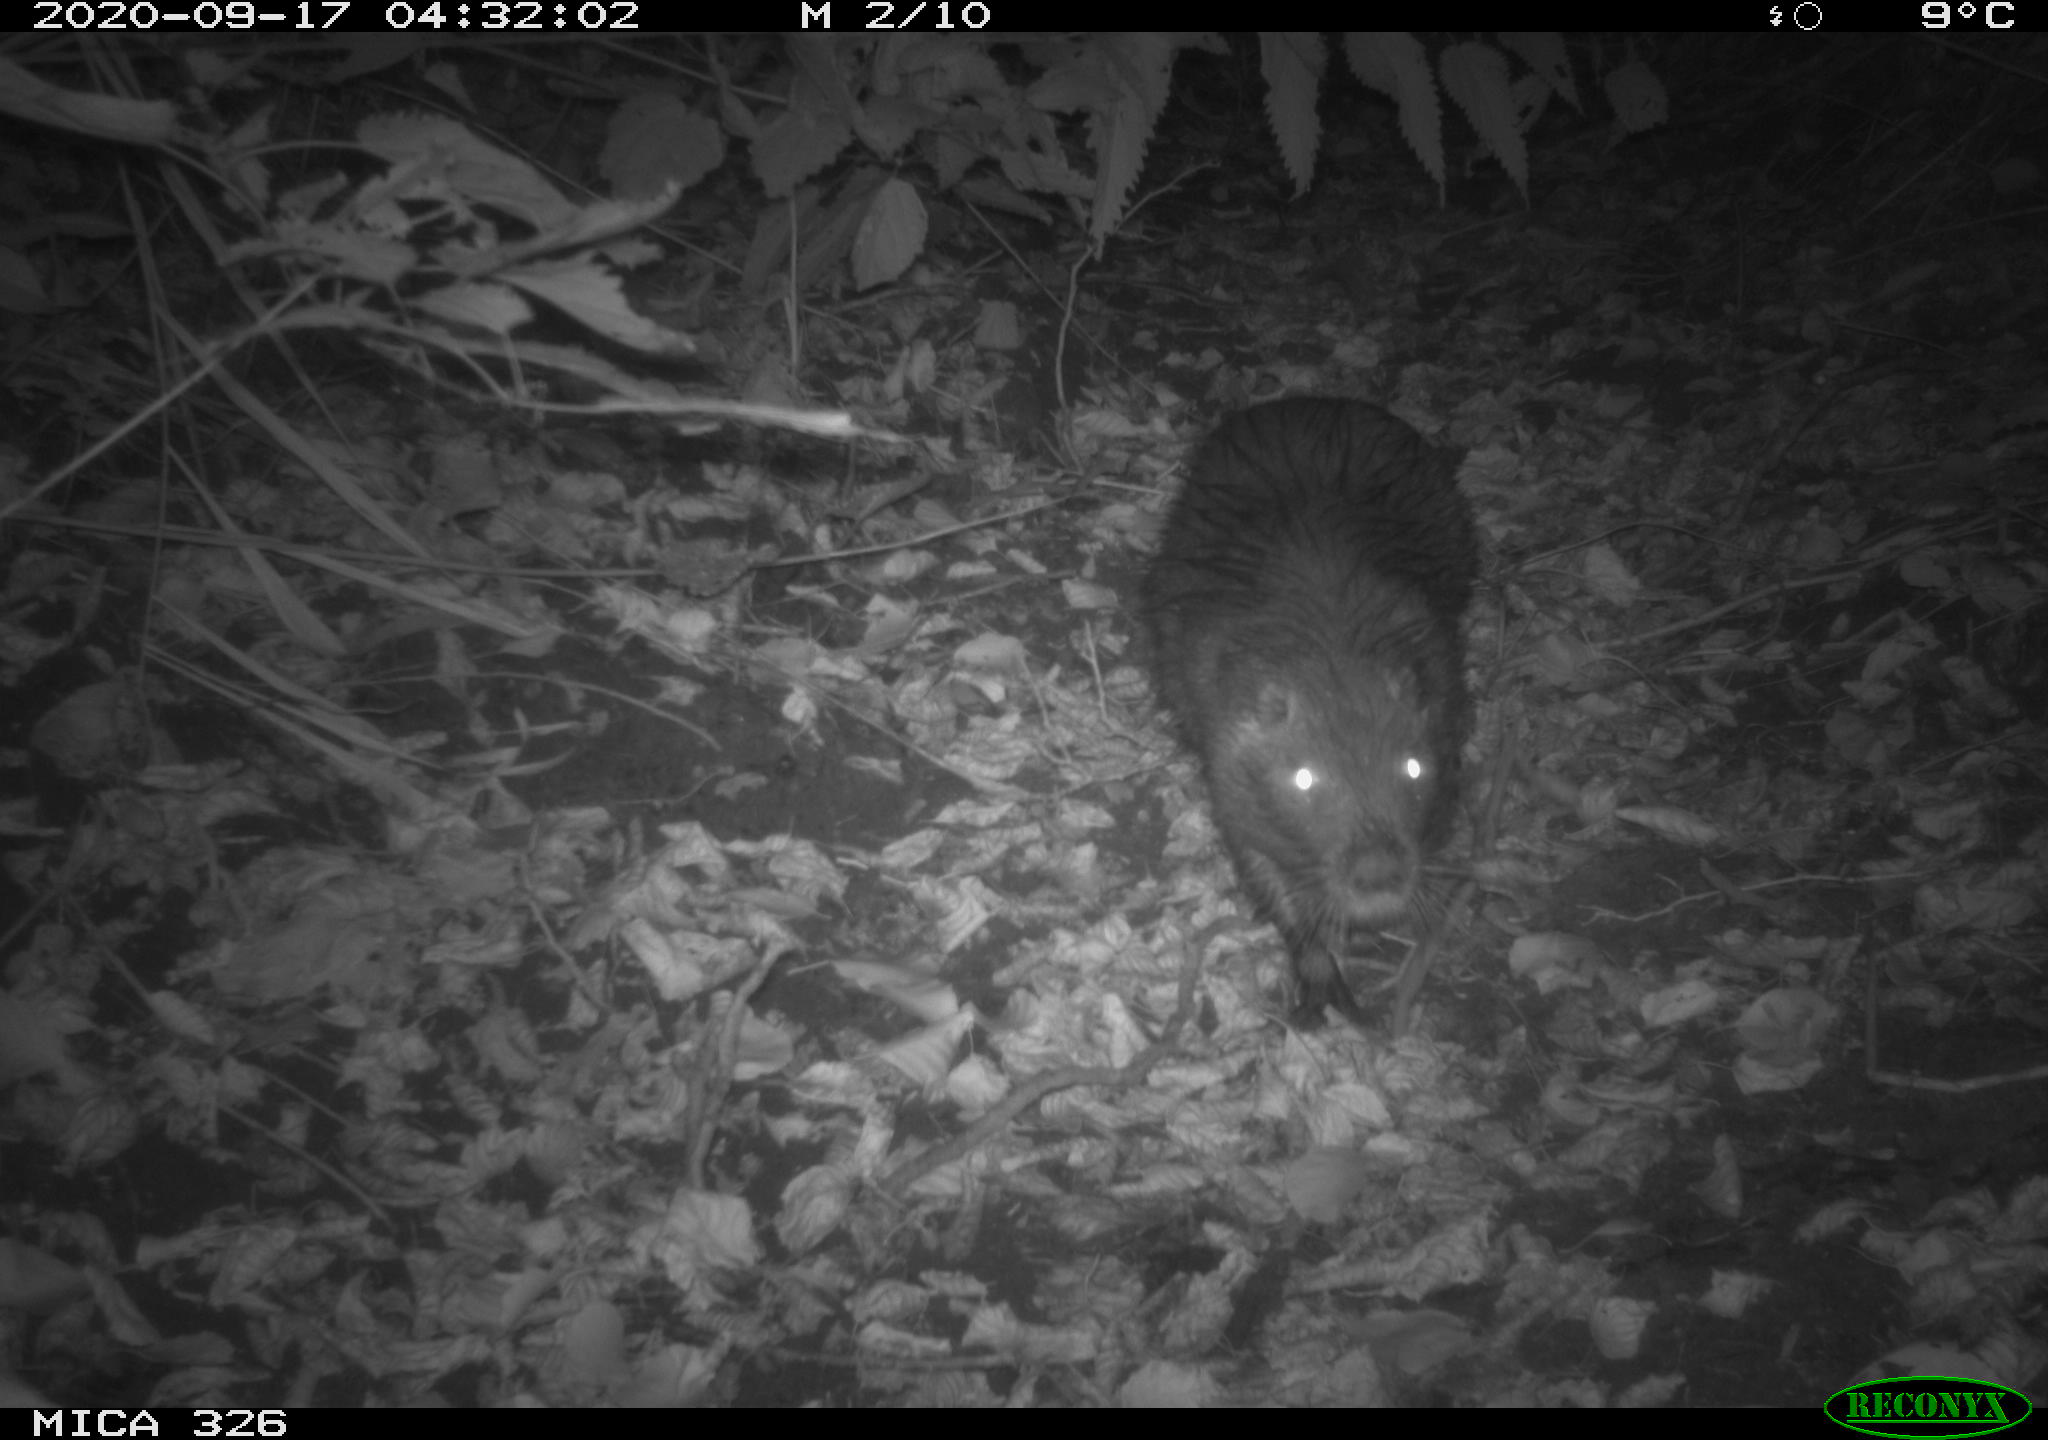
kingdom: Animalia
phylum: Chordata
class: Mammalia
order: Rodentia
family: Myocastoridae
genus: Myocastor
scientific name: Myocastor coypus
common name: Coypu
